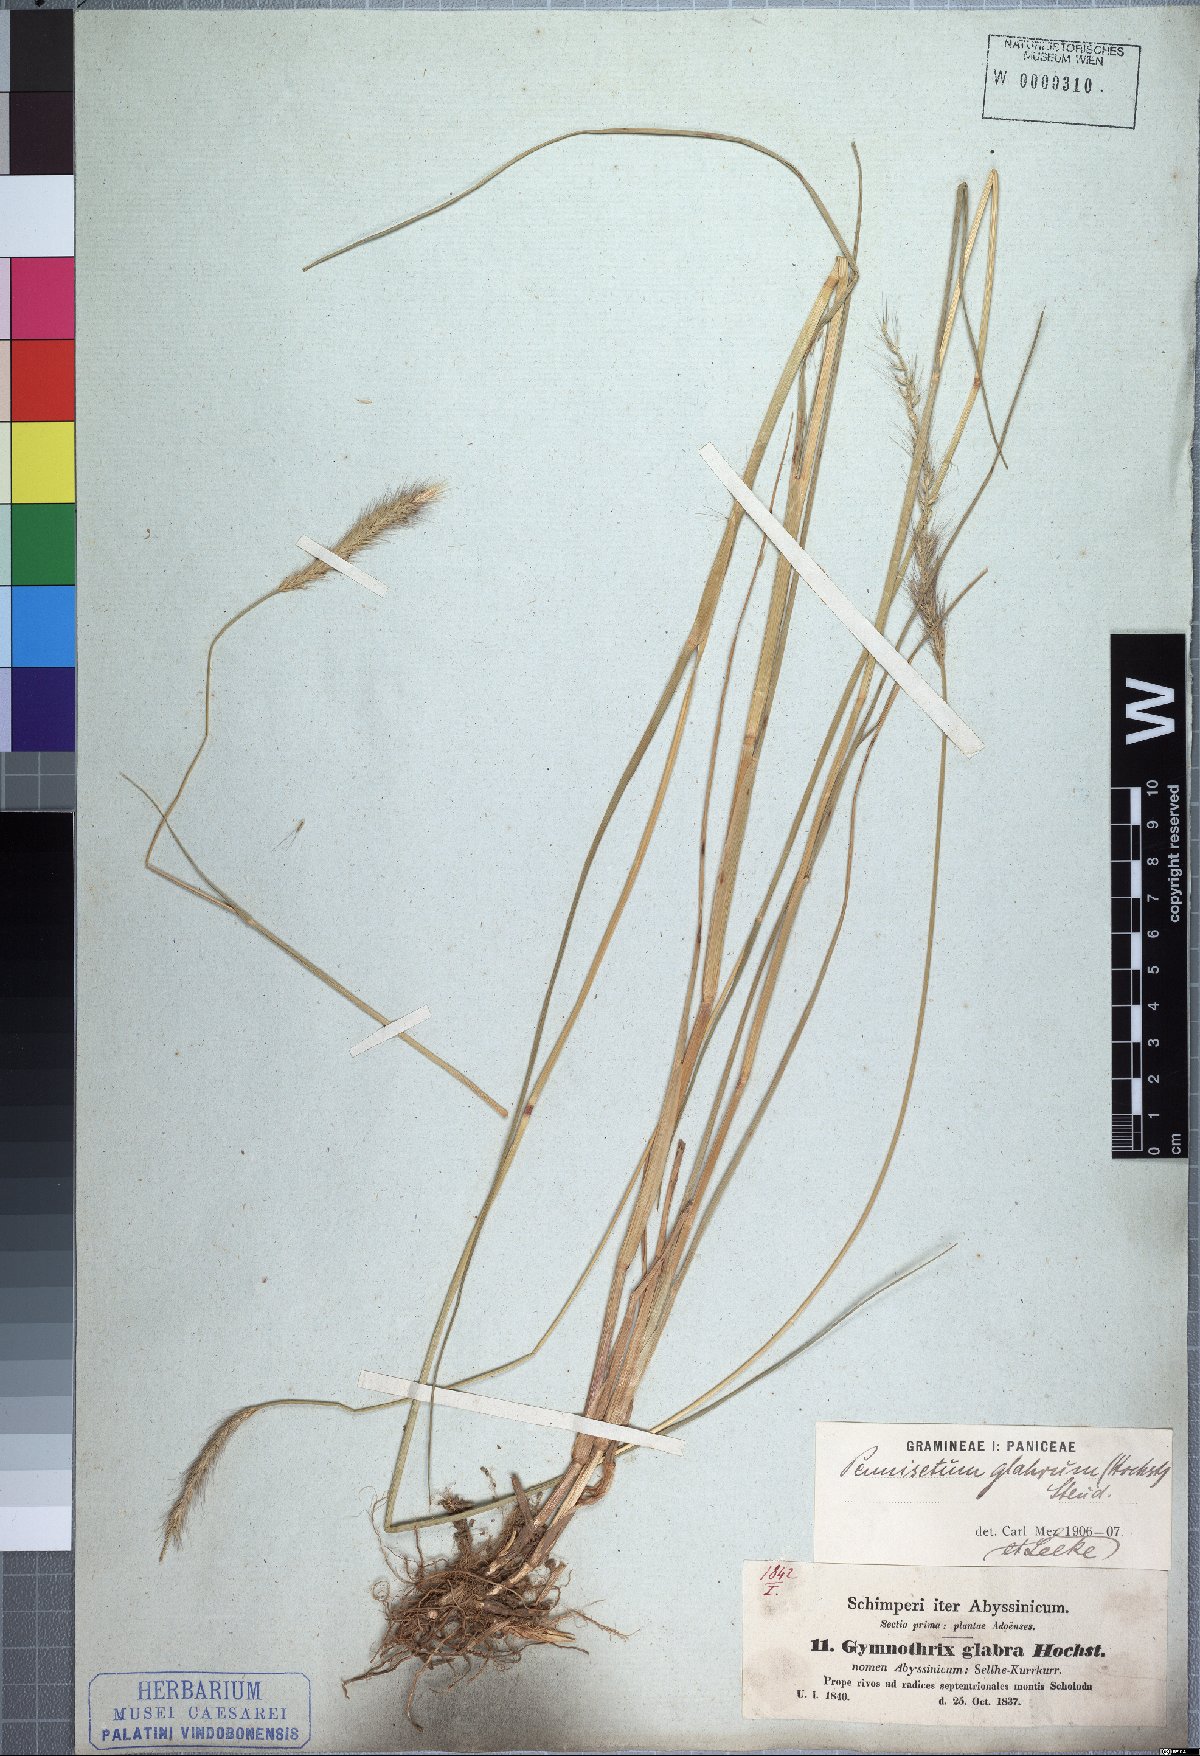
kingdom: Plantae
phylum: Tracheophyta
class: Liliopsida
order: Poales
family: Poaceae
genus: Cenchrus
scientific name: Cenchrus geniculatus
